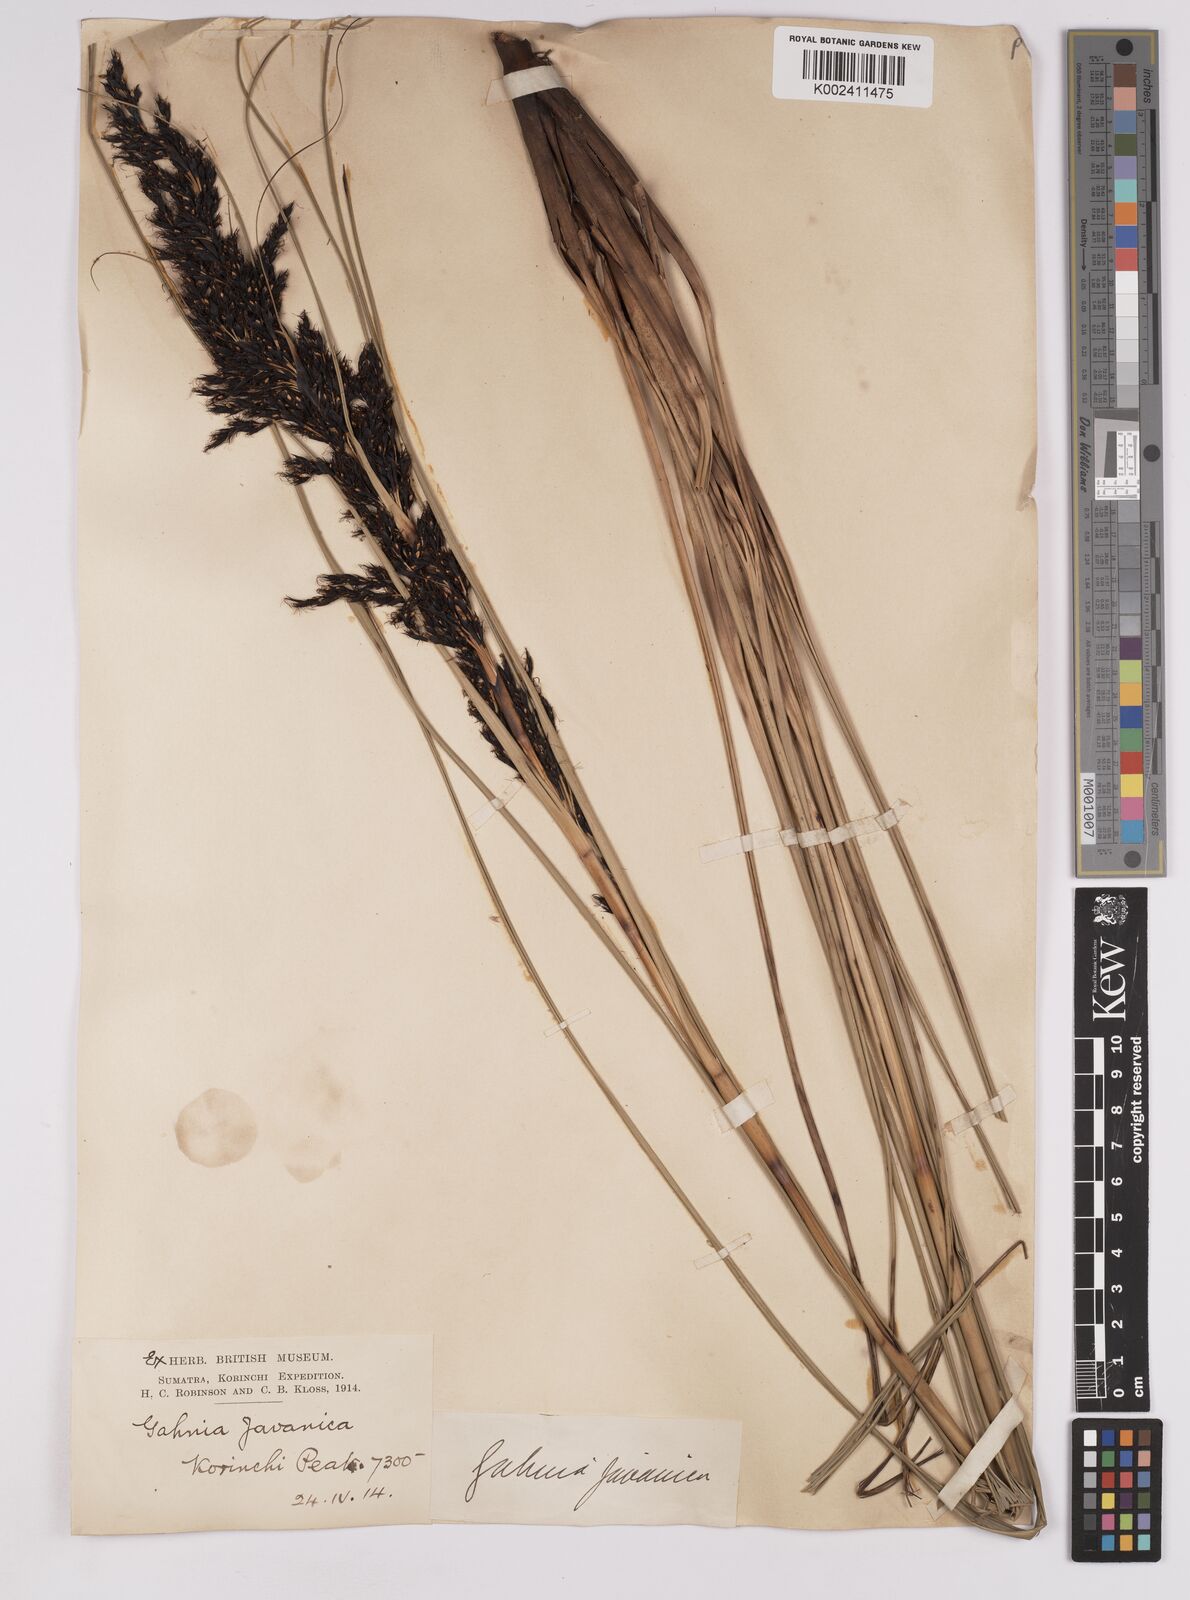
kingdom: Plantae
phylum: Tracheophyta
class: Liliopsida
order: Poales
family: Cyperaceae
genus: Gahnia
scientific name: Gahnia javanica
